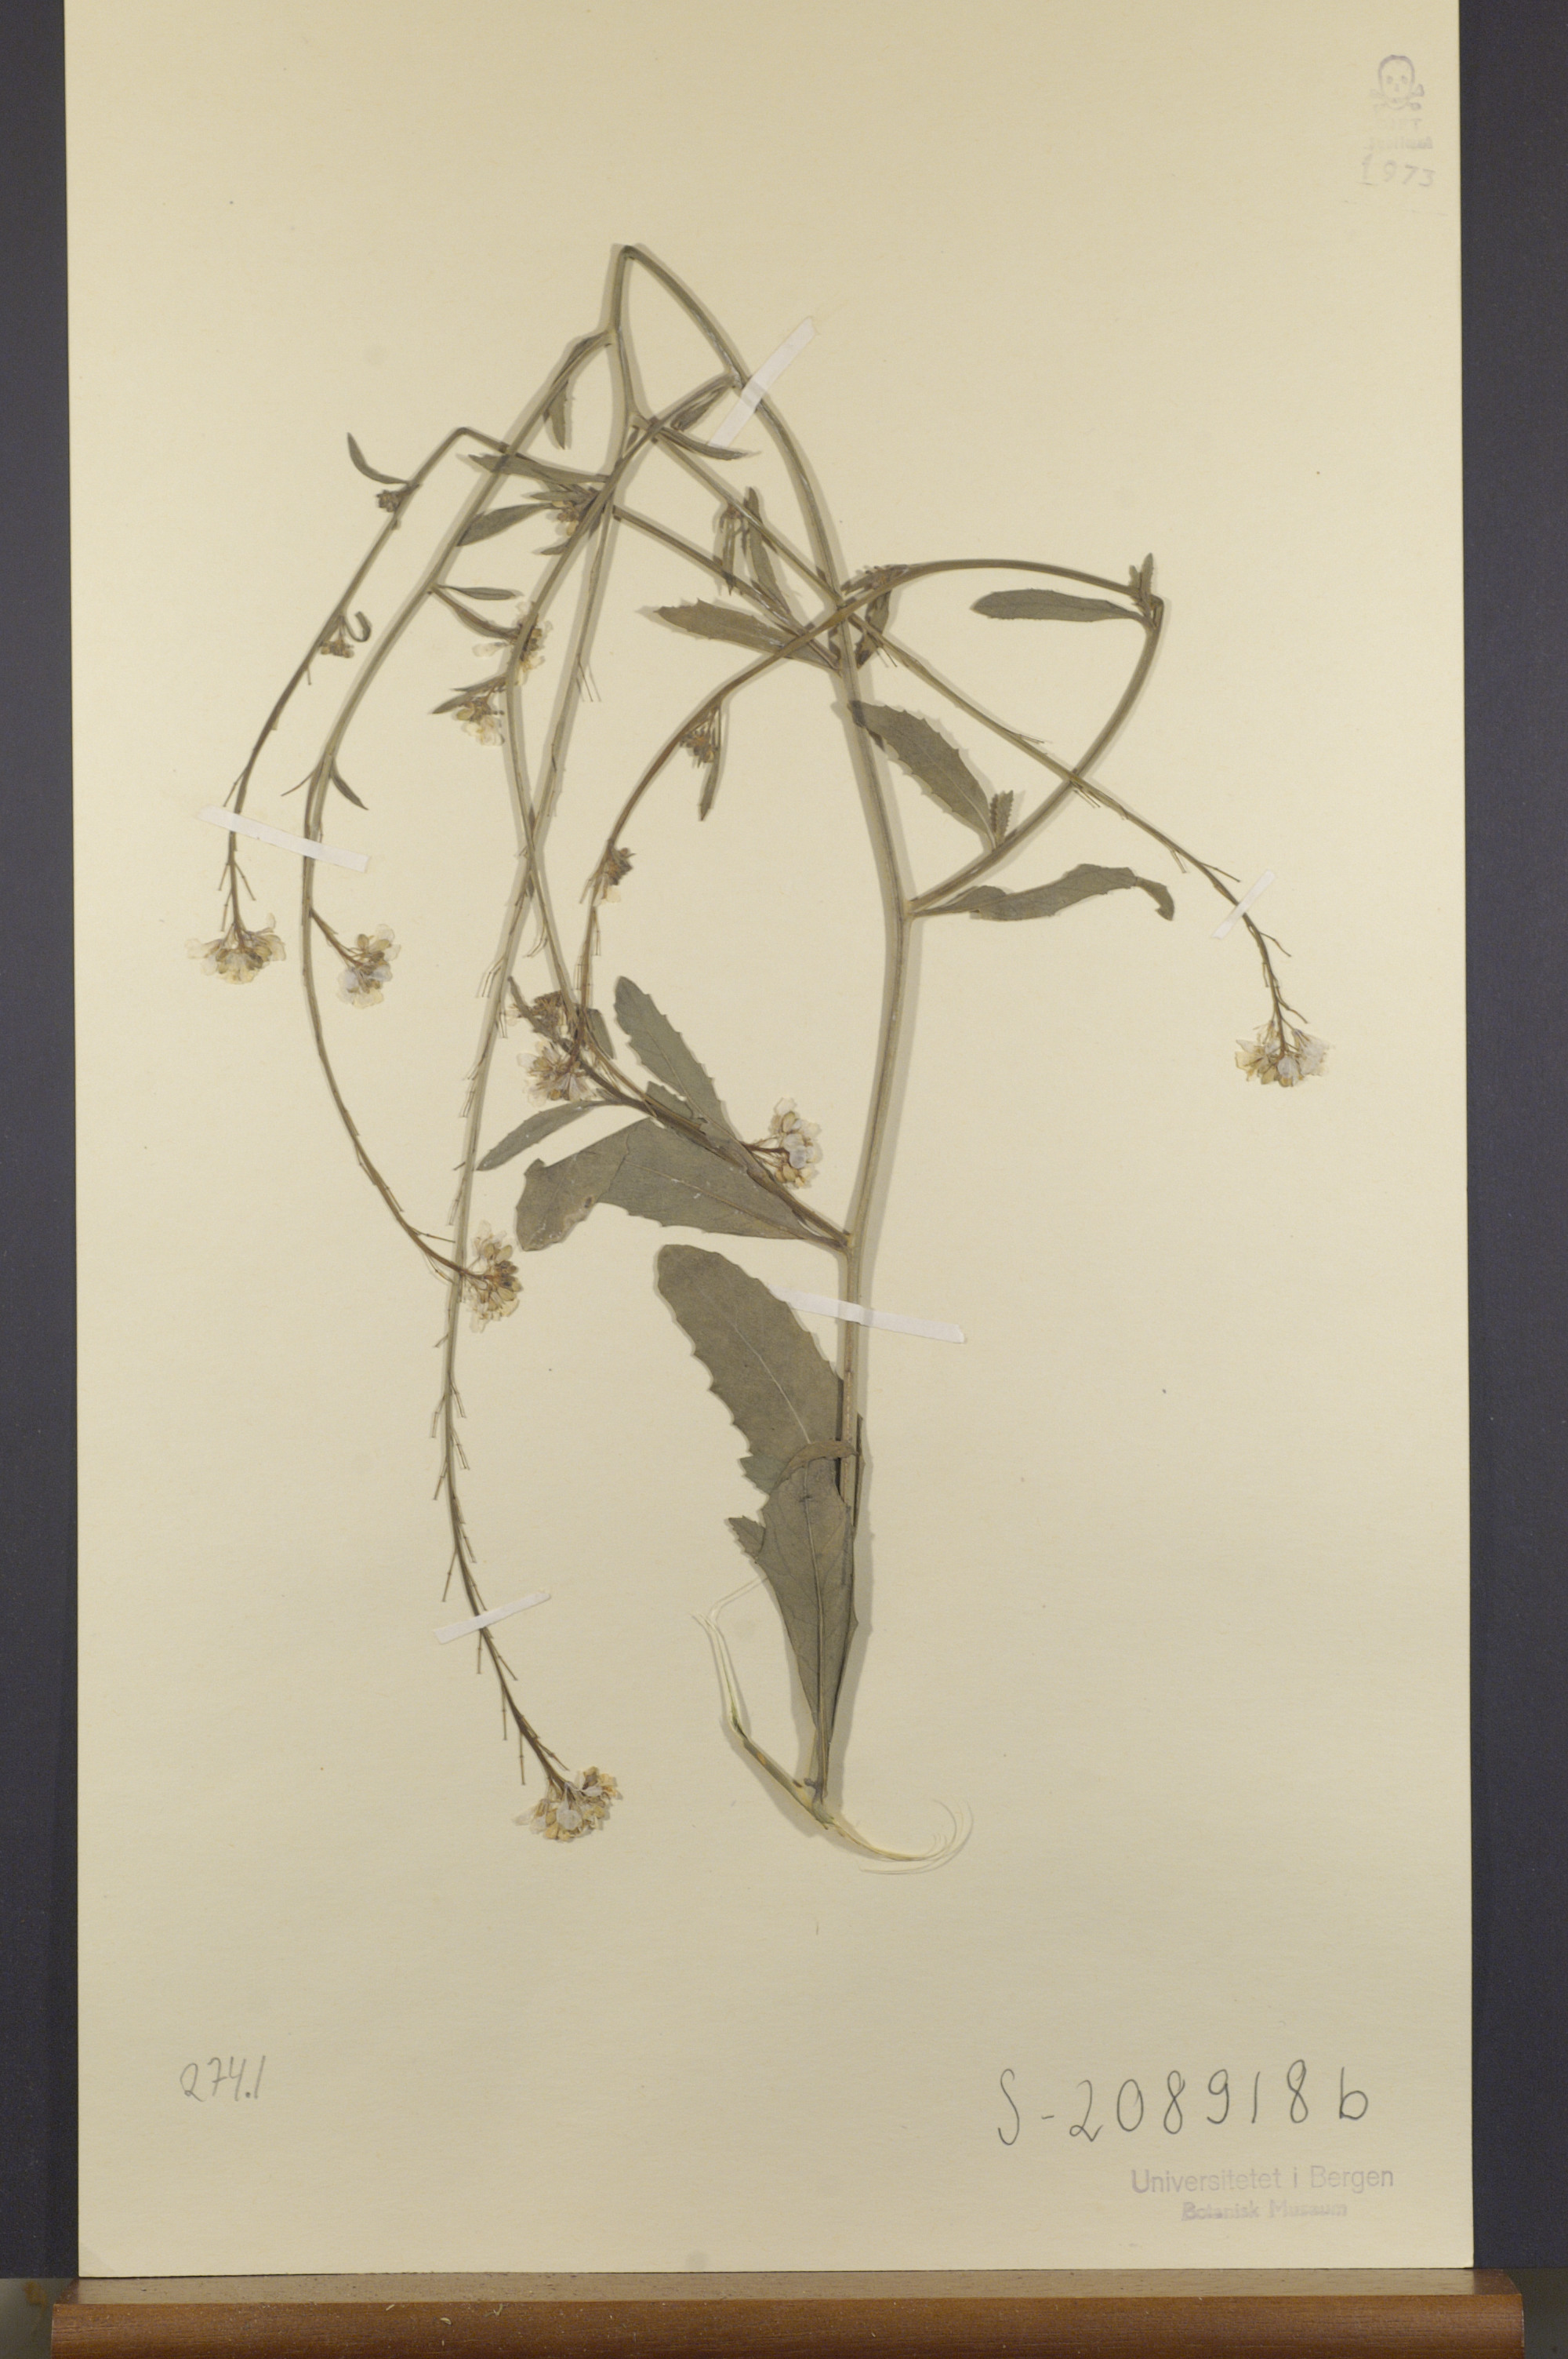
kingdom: Plantae
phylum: Tracheophyta
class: Magnoliopsida
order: Brassicales
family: Brassicaceae
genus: Hirschfeldia
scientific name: Hirschfeldia incana
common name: Hoary mustard
